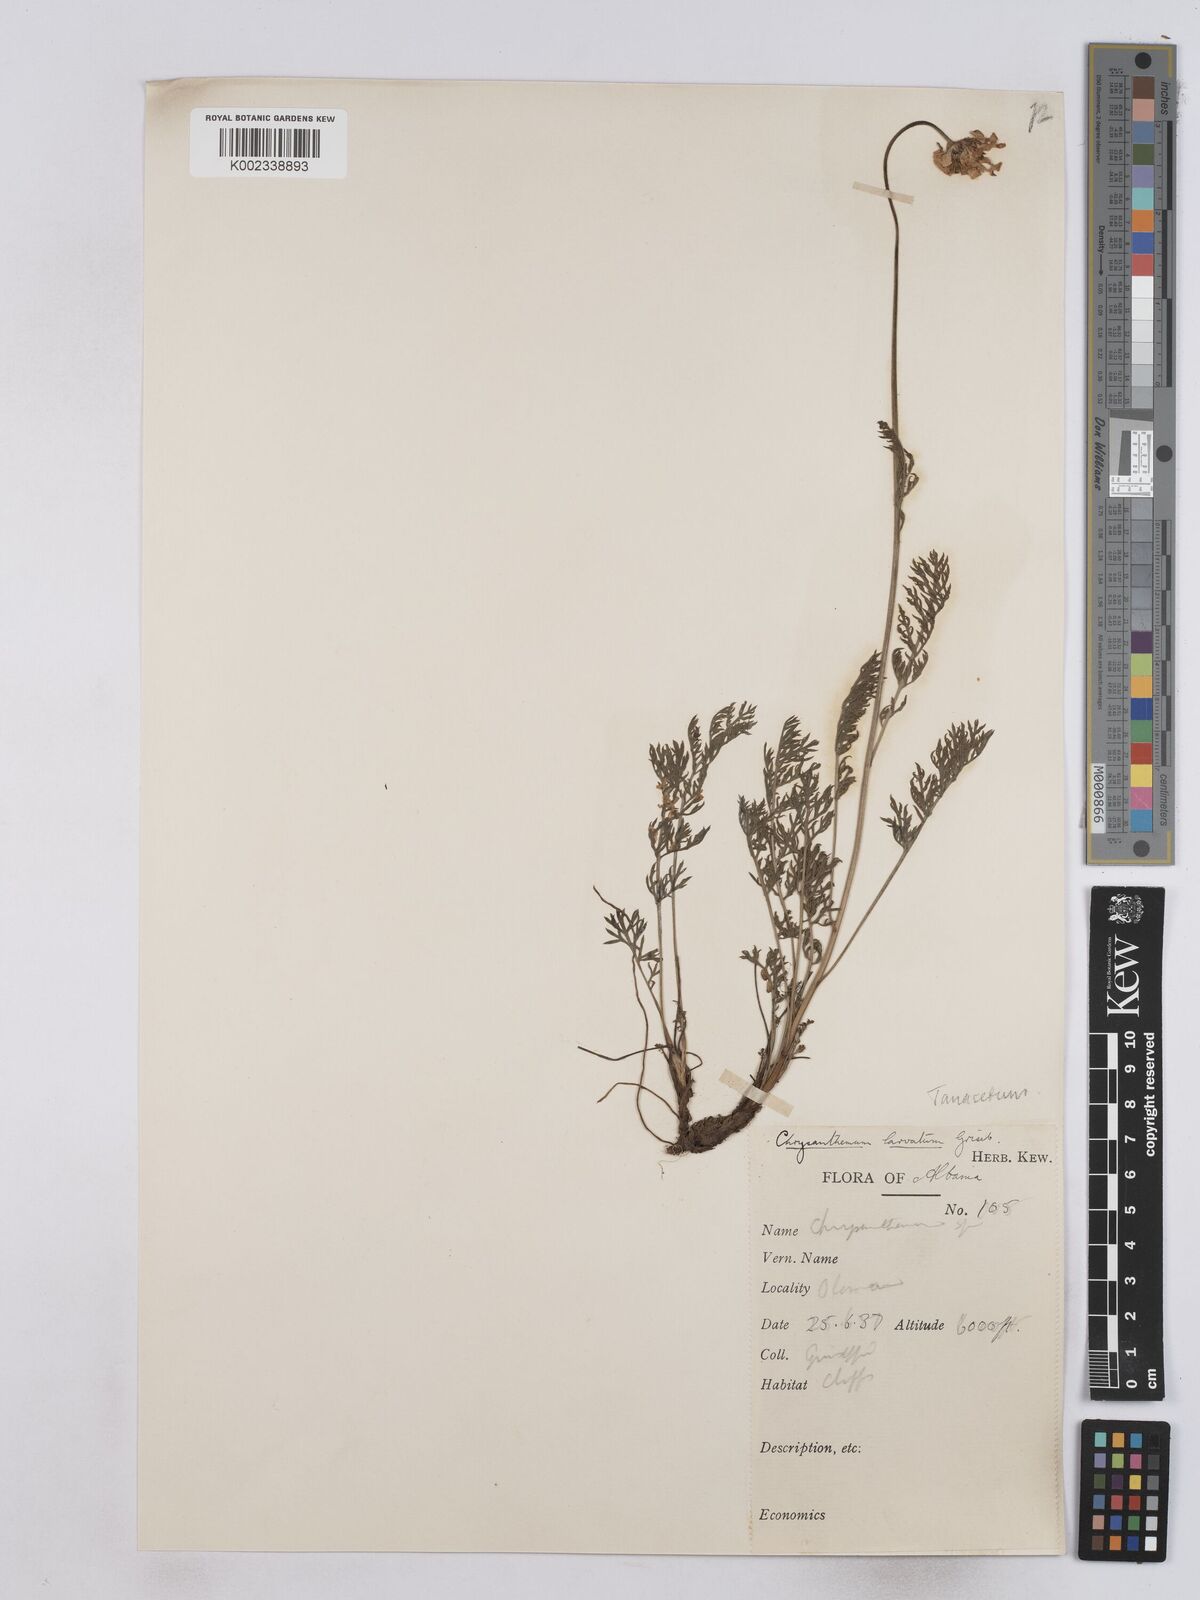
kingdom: Plantae
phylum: Tracheophyta
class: Magnoliopsida
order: Asterales
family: Asteraceae
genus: Leucanthemum
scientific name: Leucanthemum coronopifolium
